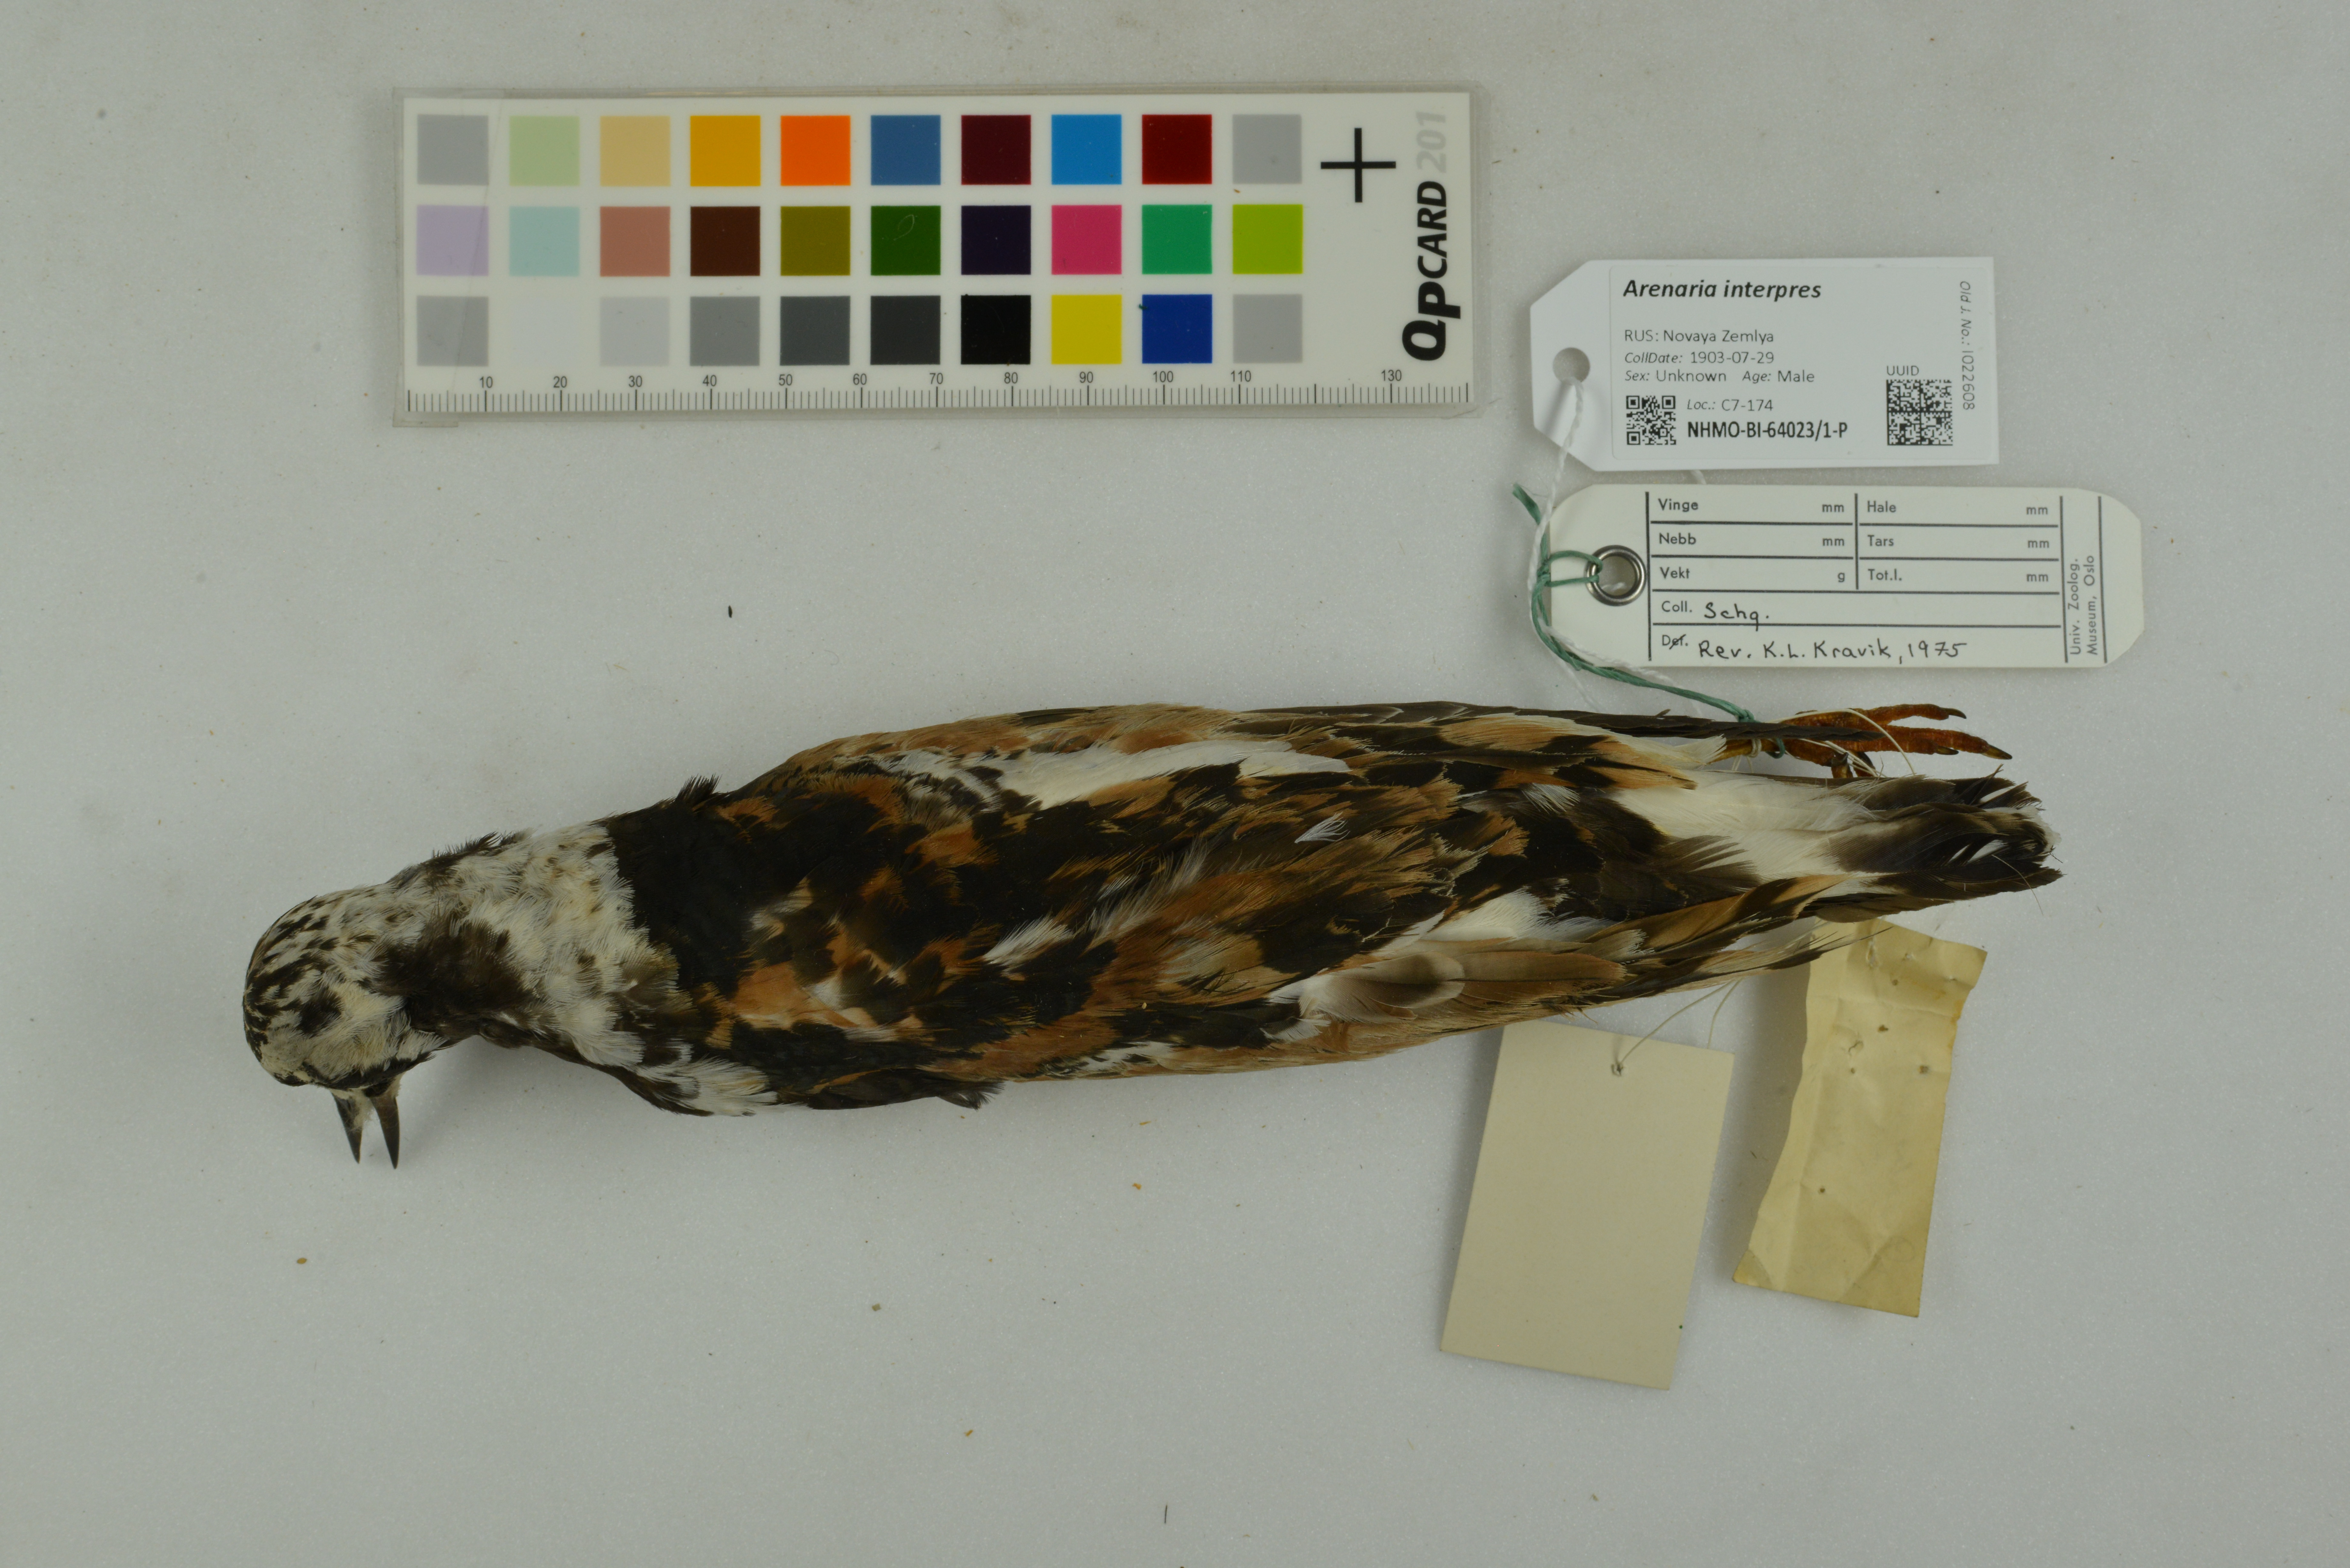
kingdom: Animalia
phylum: Chordata
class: Aves
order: Charadriiformes
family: Scolopacidae
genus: Arenaria
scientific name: Arenaria interpres
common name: Ruddy turnstone
